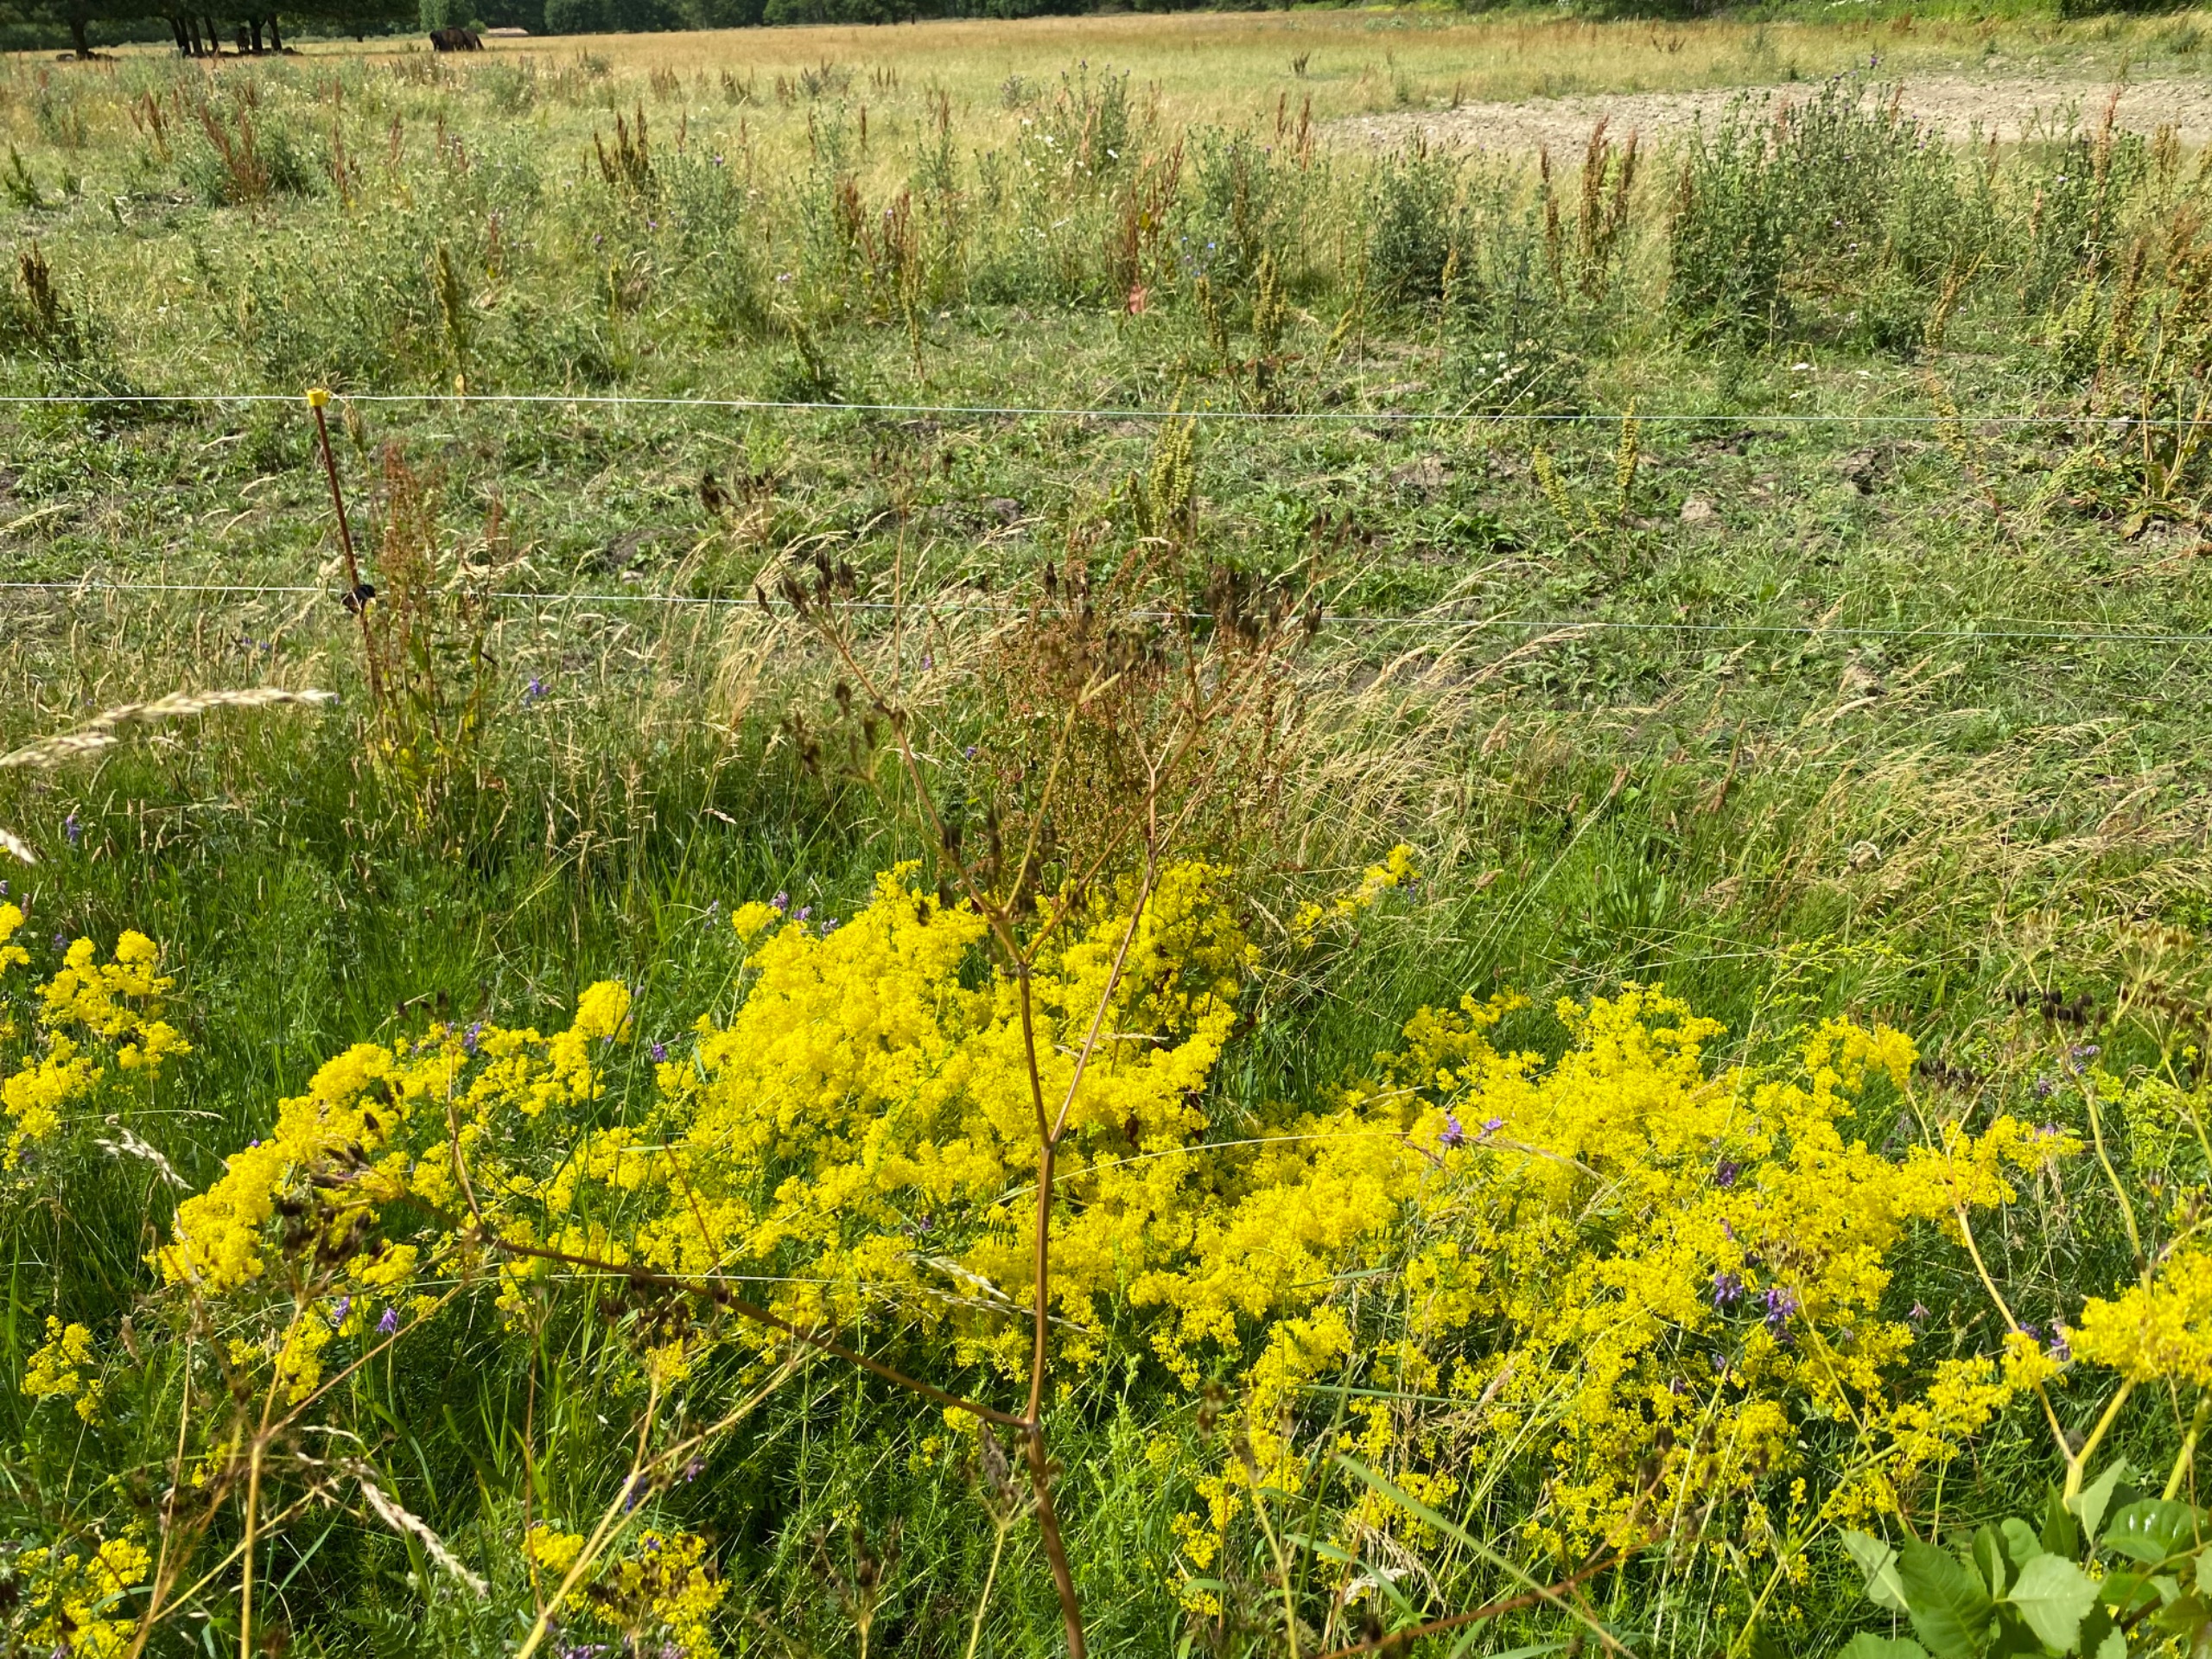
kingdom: Plantae
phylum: Tracheophyta
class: Magnoliopsida
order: Gentianales
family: Rubiaceae
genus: Galium
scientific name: Galium verum
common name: Gul snerre
